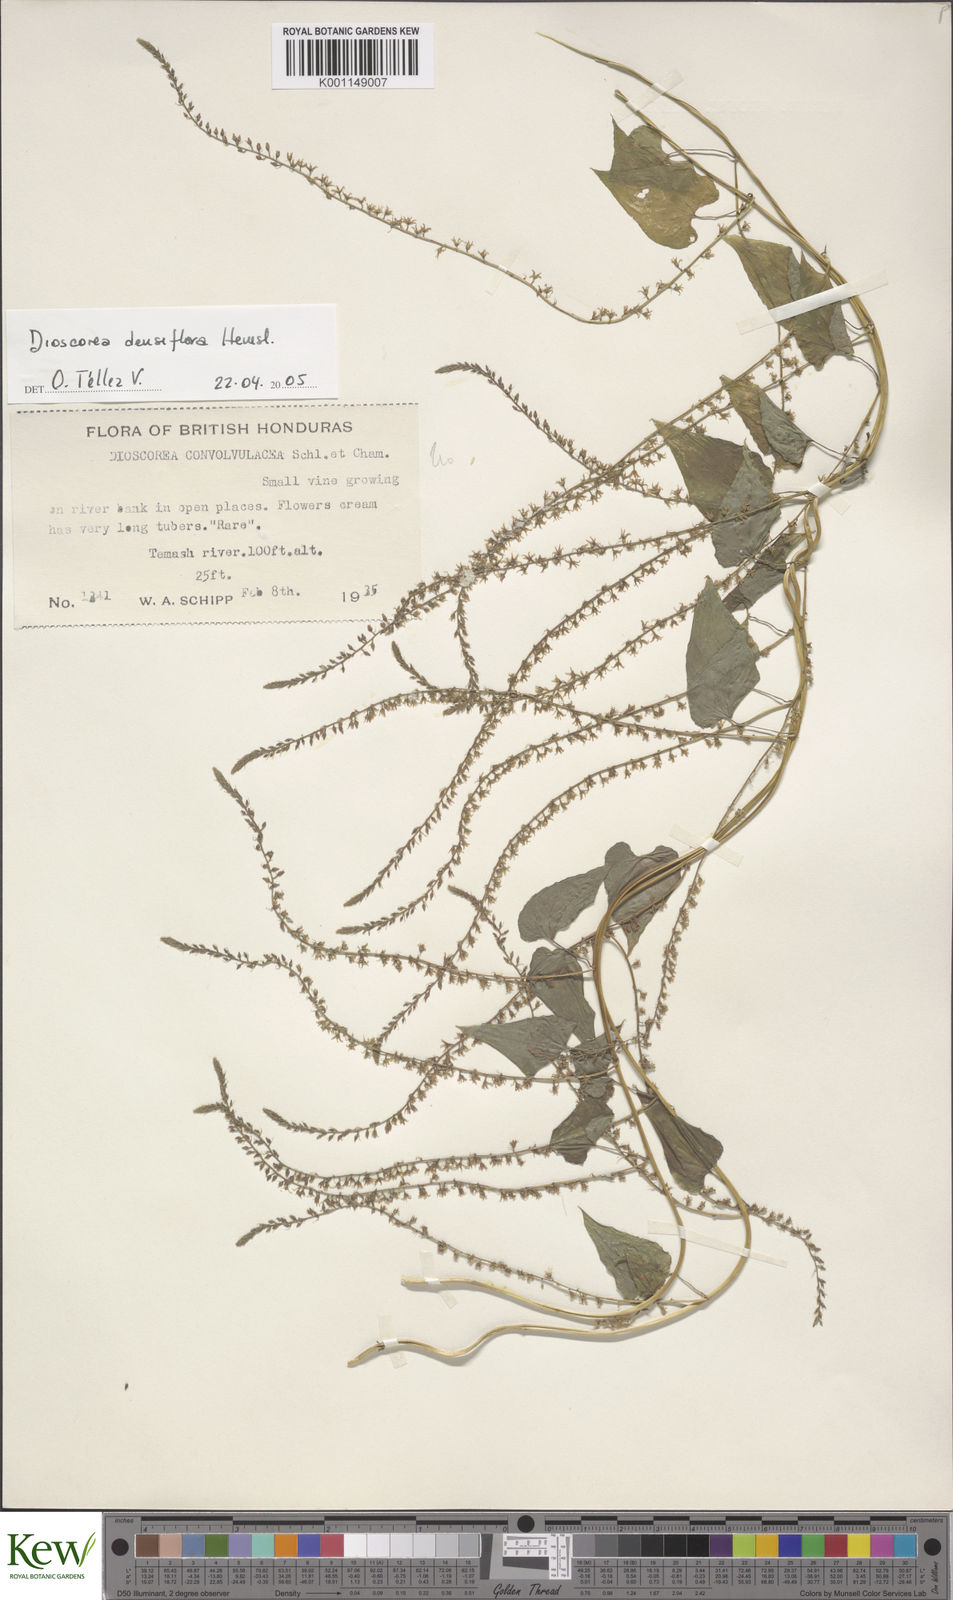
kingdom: Plantae
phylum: Tracheophyta
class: Liliopsida
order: Dioscoreales
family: Dioscoreaceae
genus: Dioscorea
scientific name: Dioscorea densiflora
